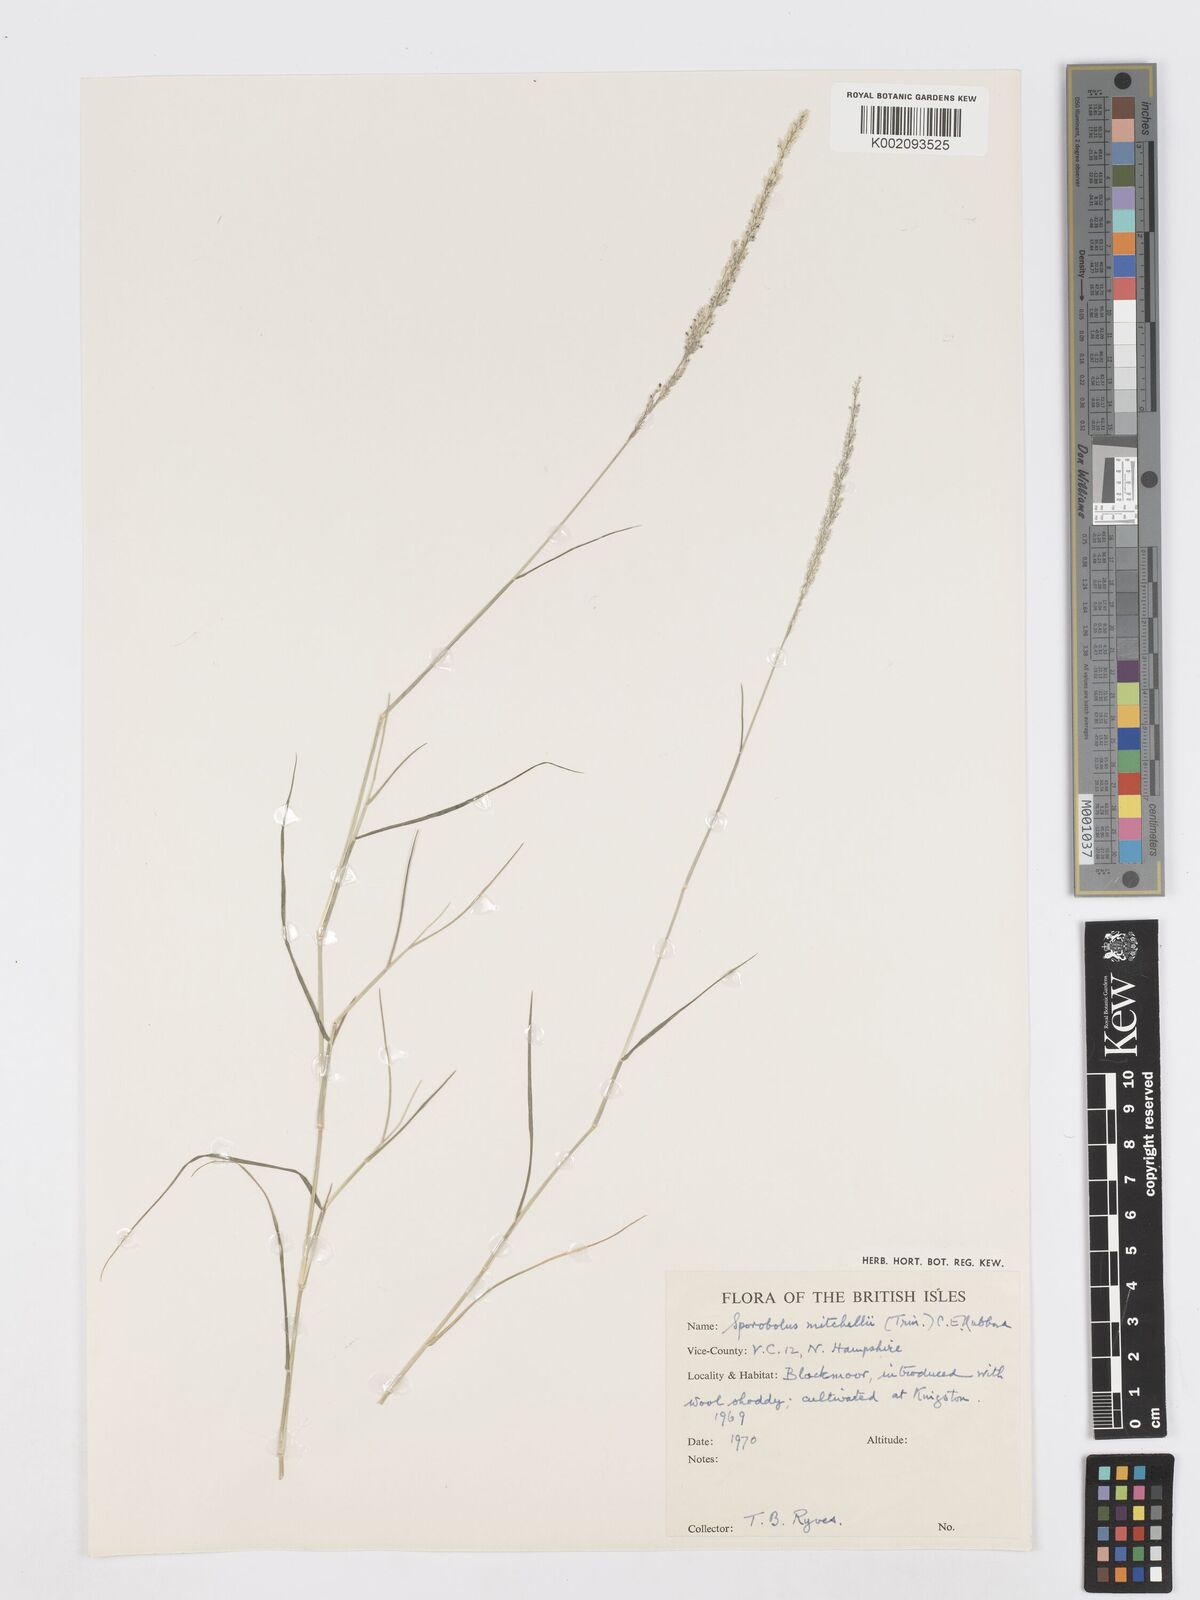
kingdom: Plantae
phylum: Tracheophyta
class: Liliopsida
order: Poales
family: Poaceae
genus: Sporobolus
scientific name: Sporobolus mitchellii
